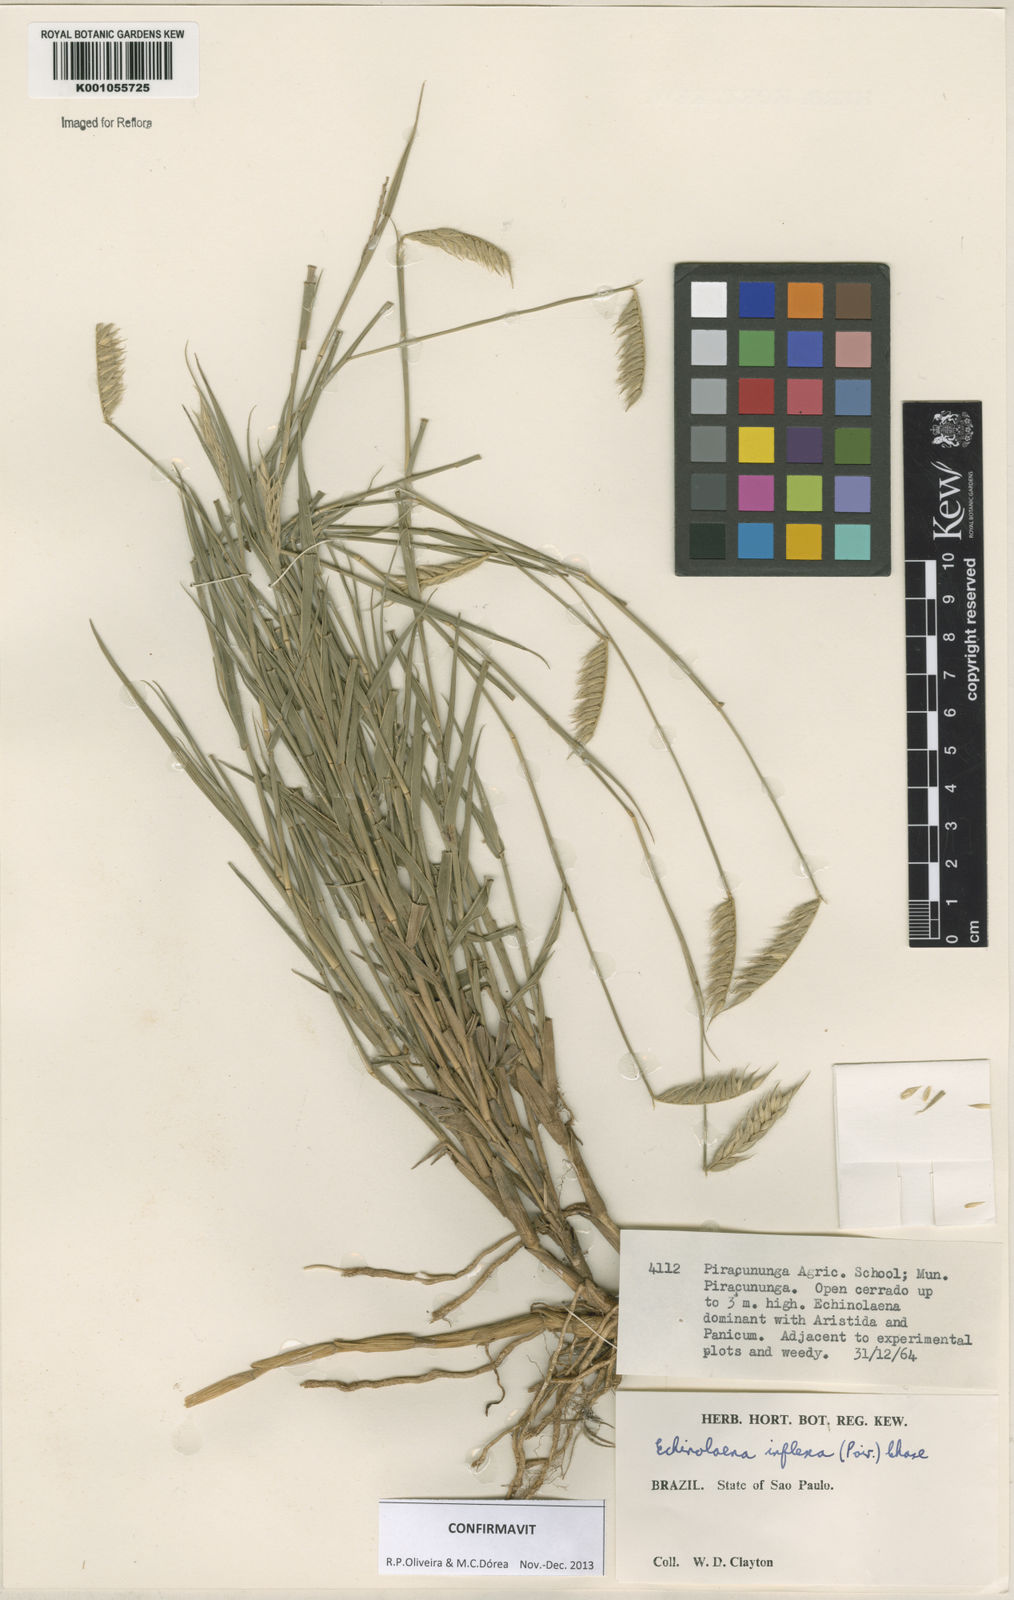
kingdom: Plantae
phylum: Tracheophyta
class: Liliopsida
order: Poales
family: Poaceae
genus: Echinolaena
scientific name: Echinolaena inflexa
